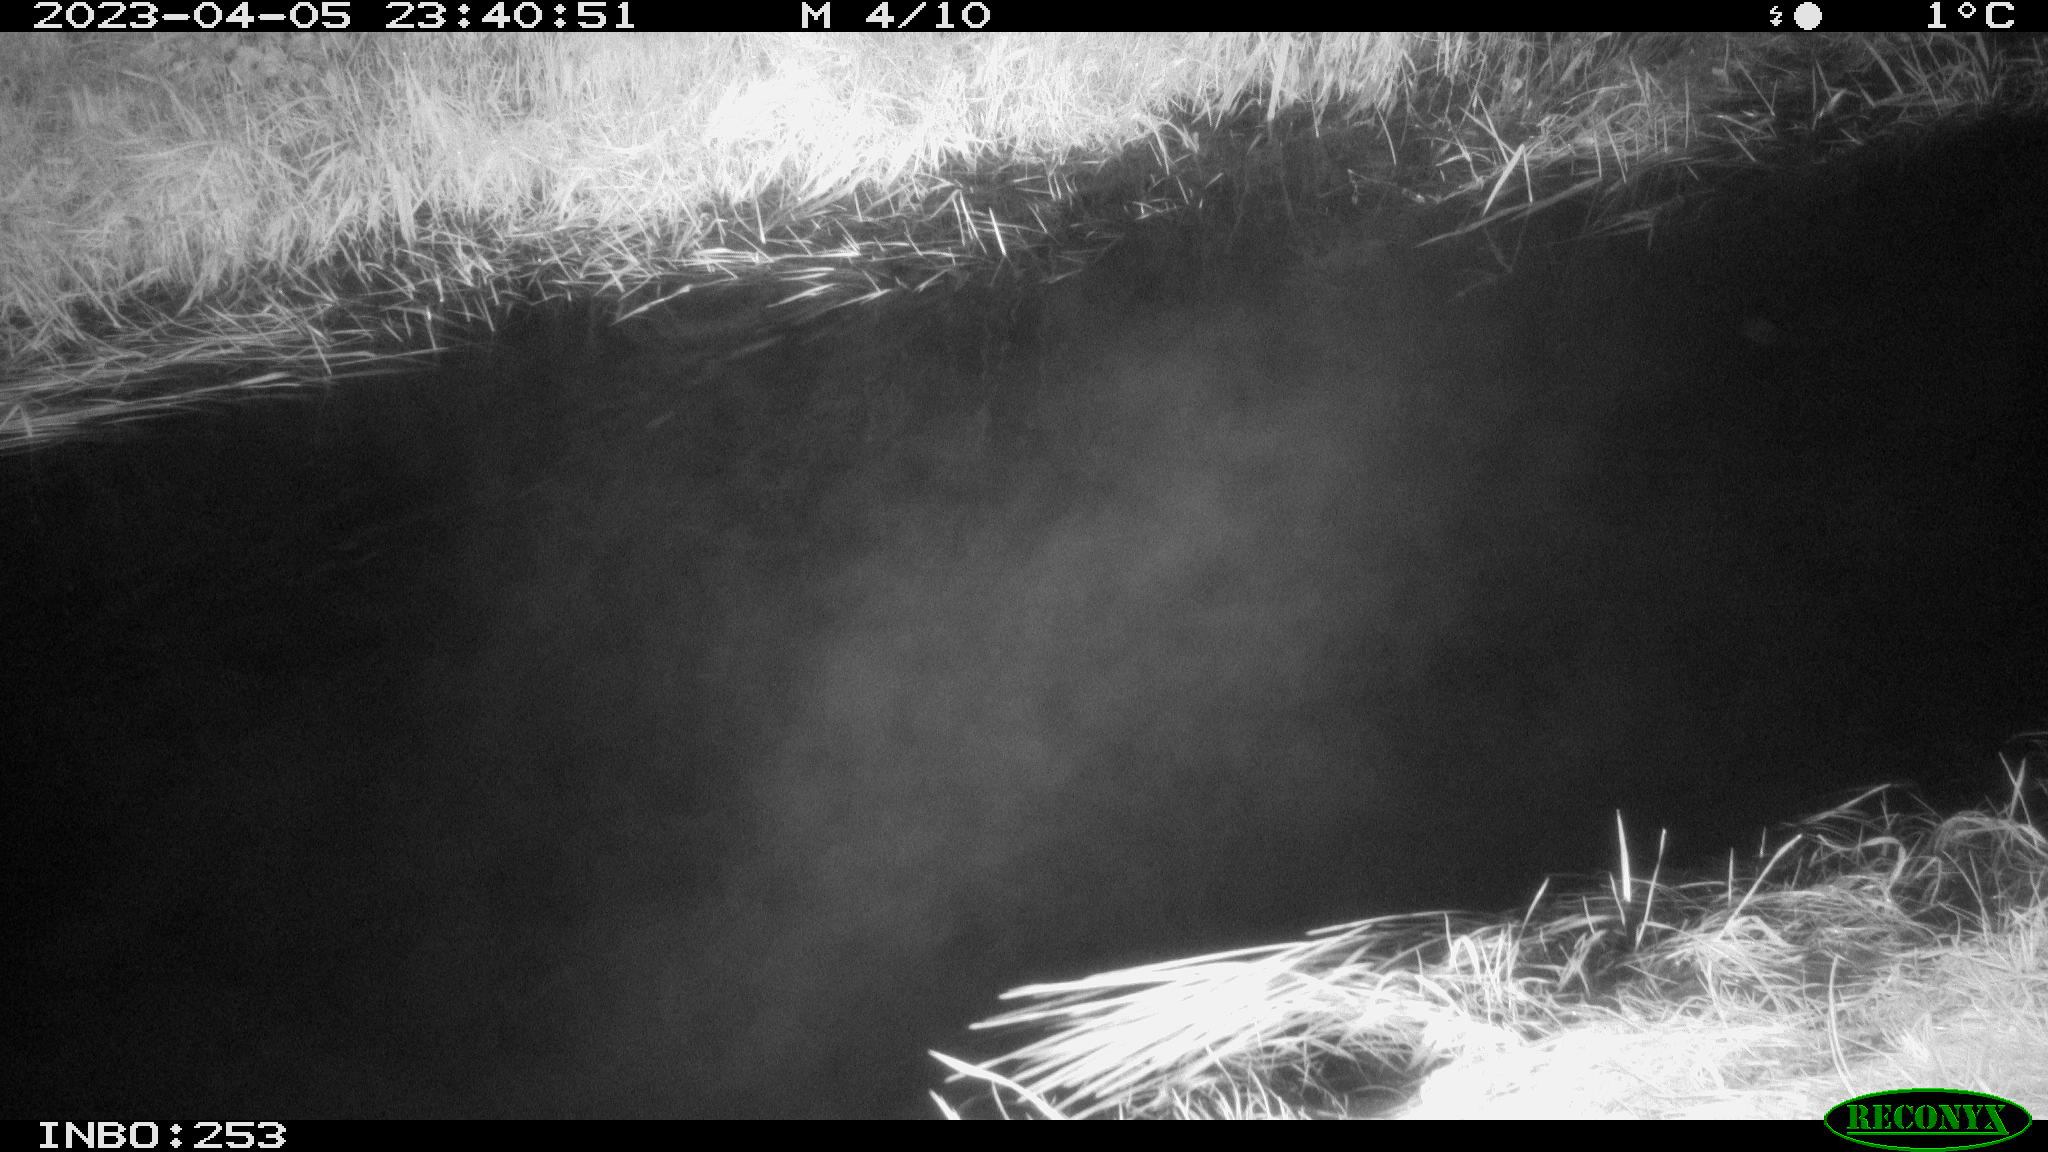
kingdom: Animalia
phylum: Chordata
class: Aves
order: Anseriformes
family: Anatidae
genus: Anas
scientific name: Anas
